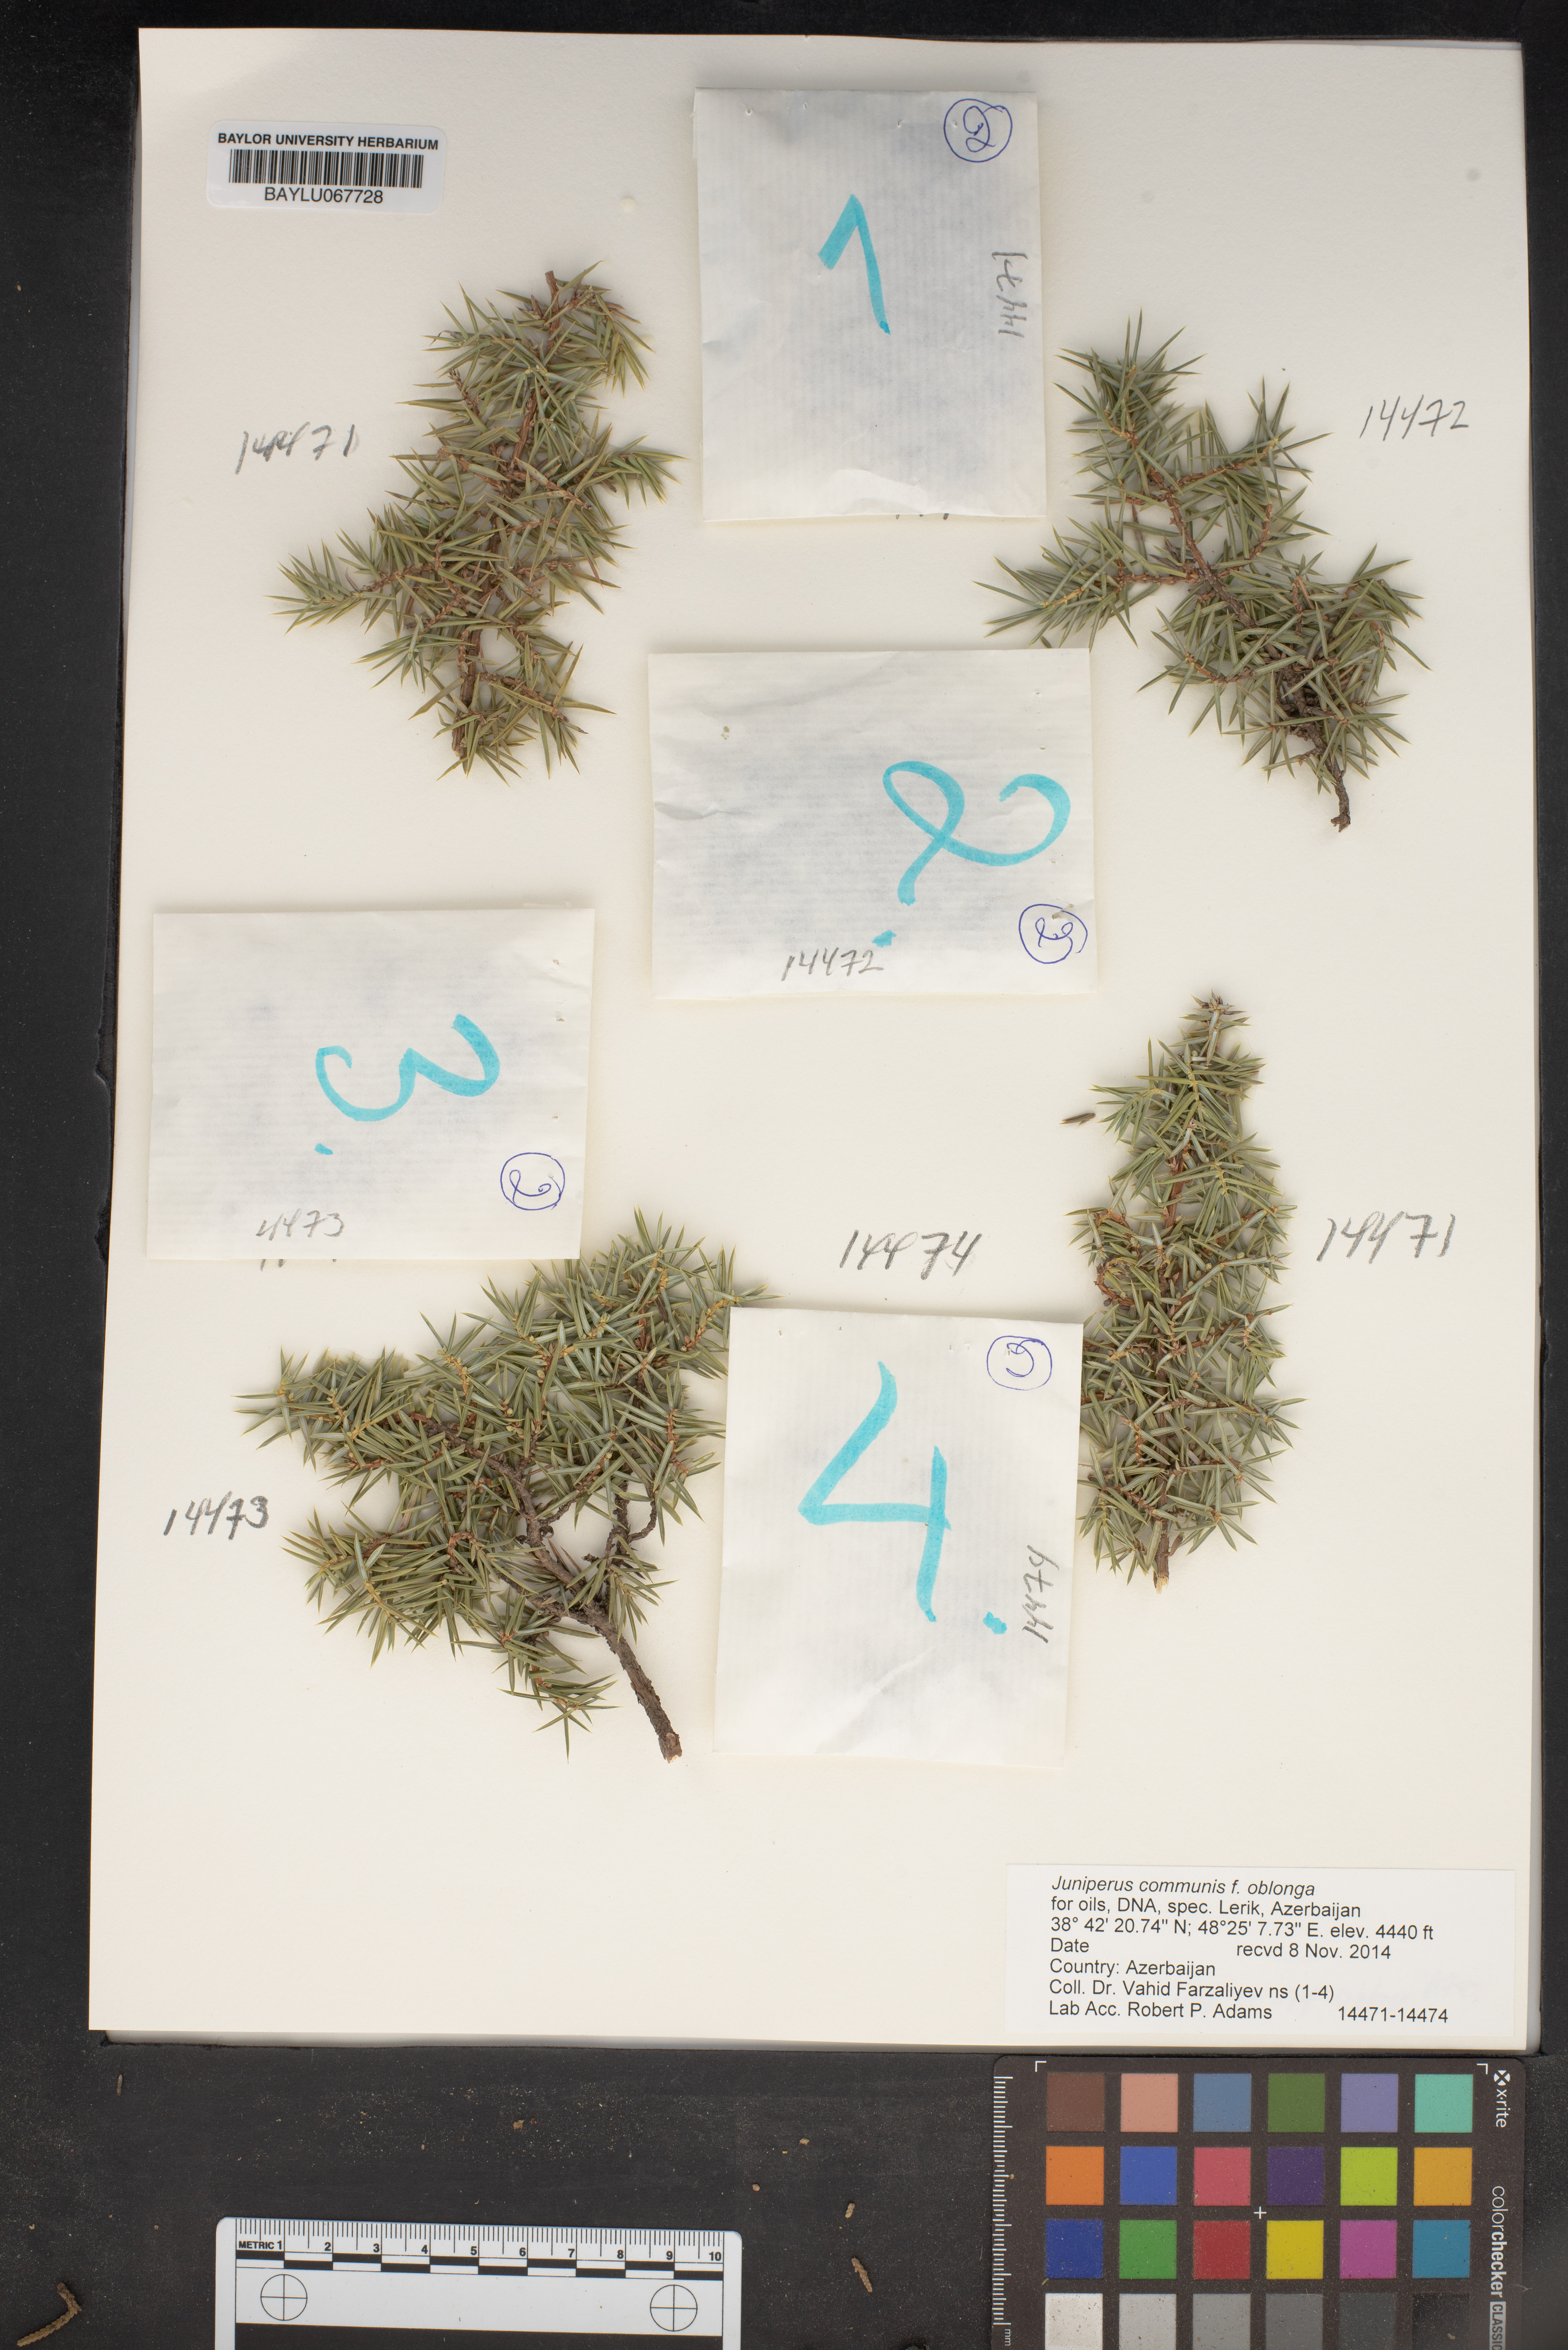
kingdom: Plantae
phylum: Tracheophyta
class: Pinopsida
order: Pinales
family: Cupressaceae
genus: Juniperus
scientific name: Juniperus communis
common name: Common juniper
